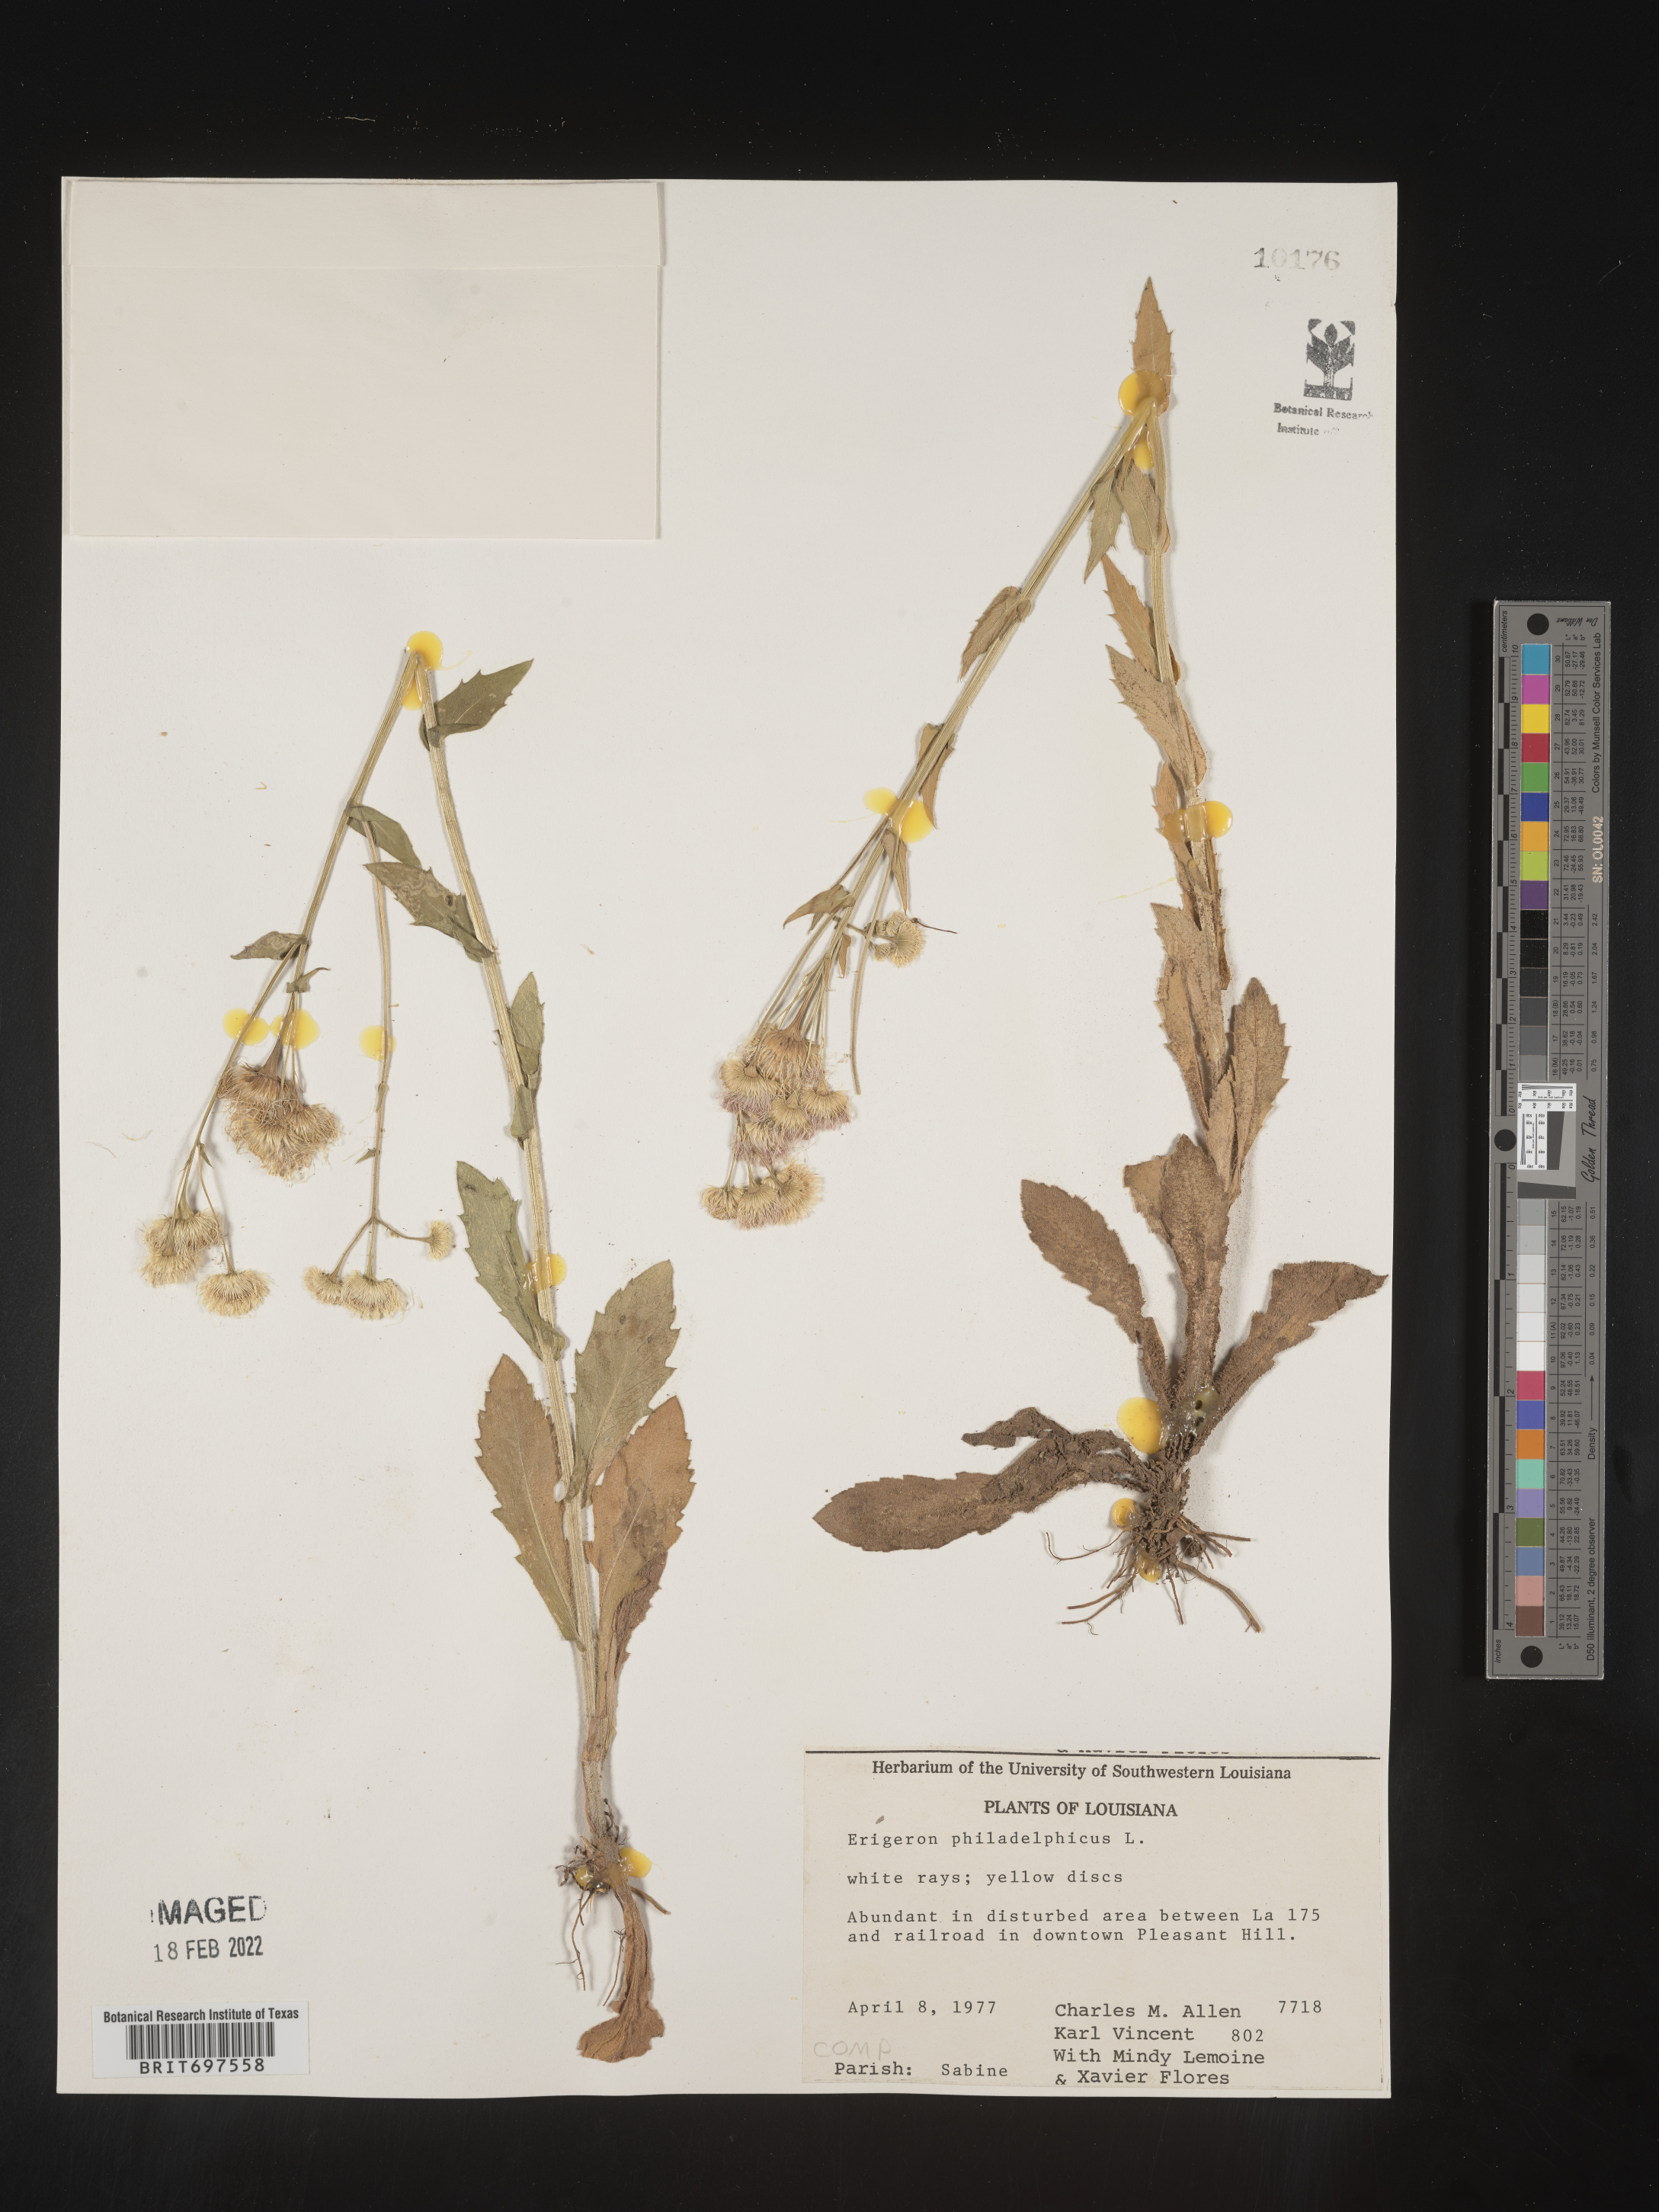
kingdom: Plantae
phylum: Tracheophyta
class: Magnoliopsida
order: Asterales
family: Asteraceae
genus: Erigeron
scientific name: Erigeron philadelphicus
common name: Robin's-plantain
